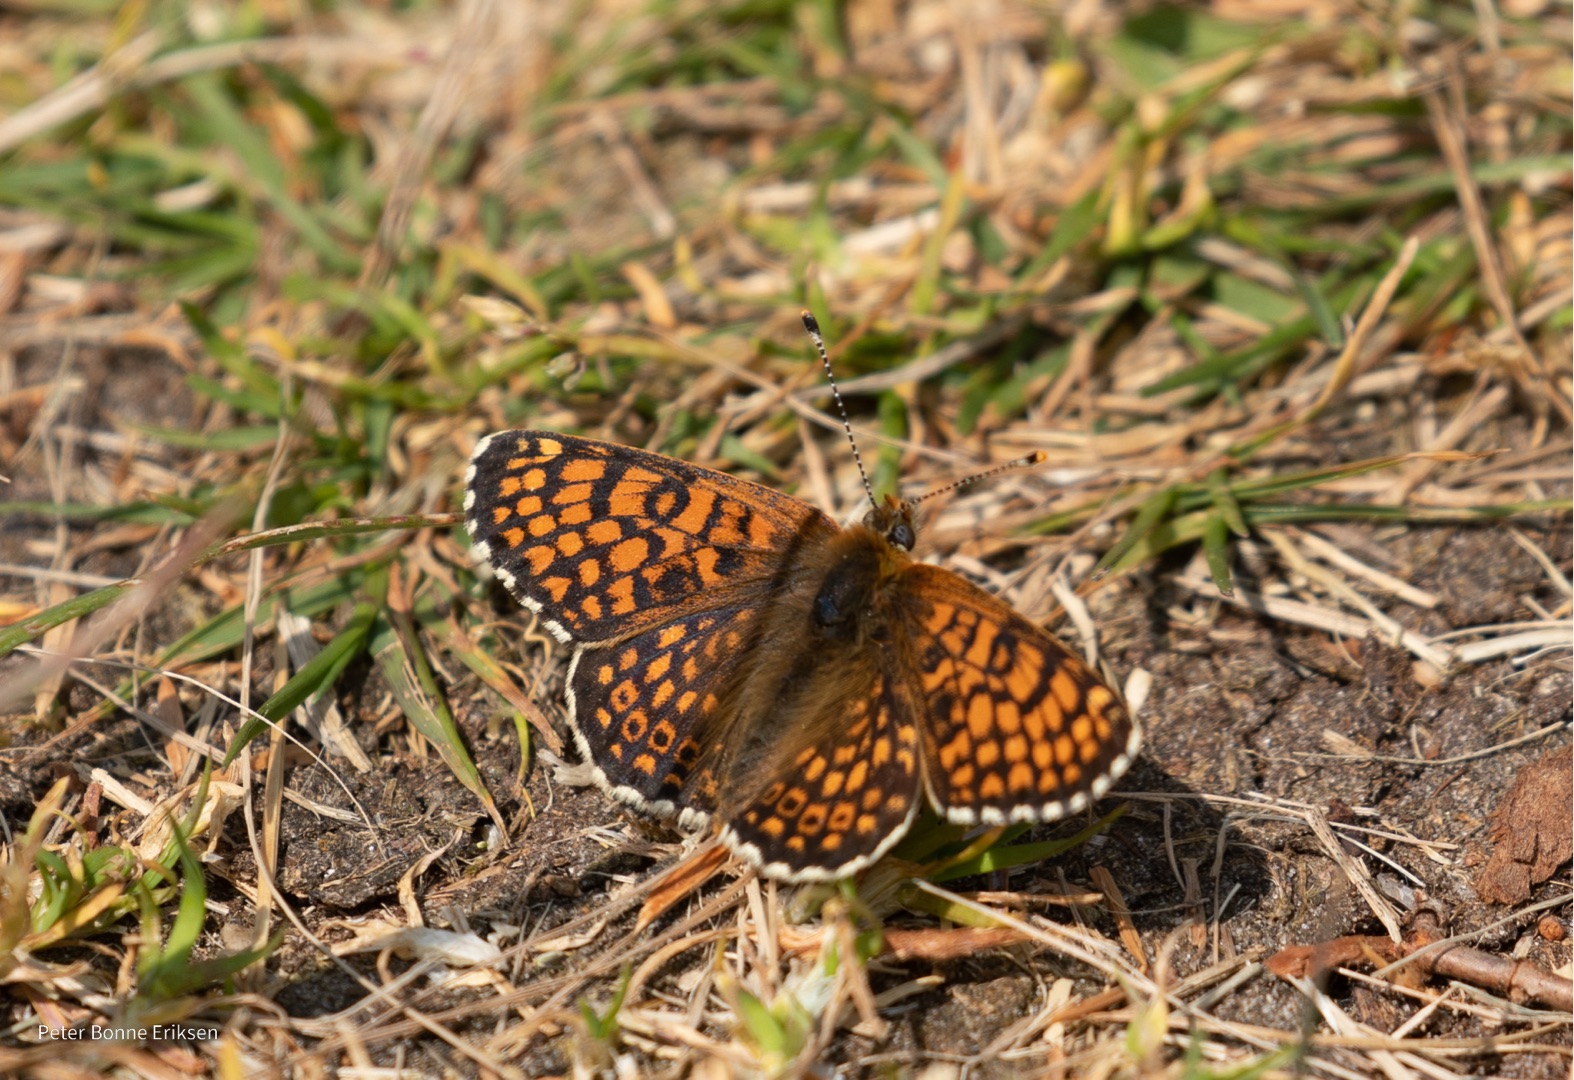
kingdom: Animalia
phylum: Arthropoda
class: Insecta
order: Lepidoptera
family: Nymphalidae
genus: Melitaea
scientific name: Melitaea cinxia
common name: Okkergul pletvinge
